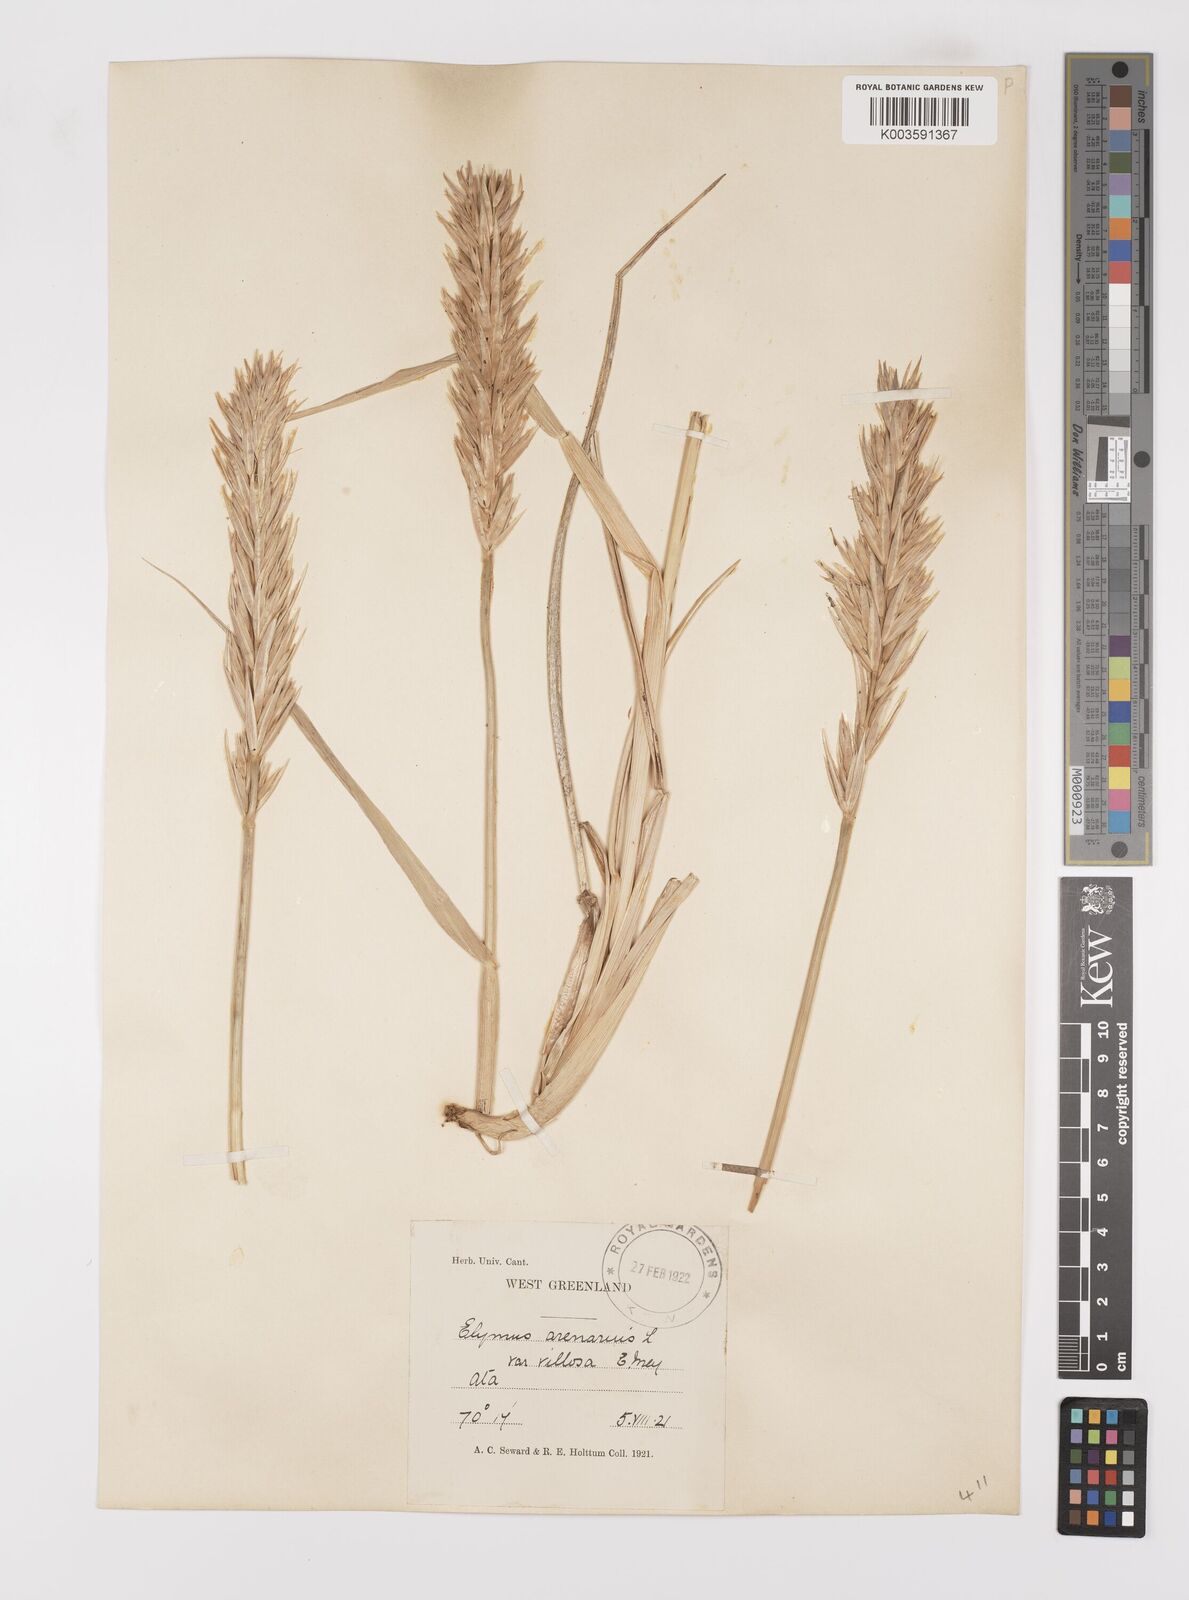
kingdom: Plantae
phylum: Tracheophyta
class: Liliopsida
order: Poales
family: Poaceae
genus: Leymus
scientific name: Leymus mollis
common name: American dune grass
